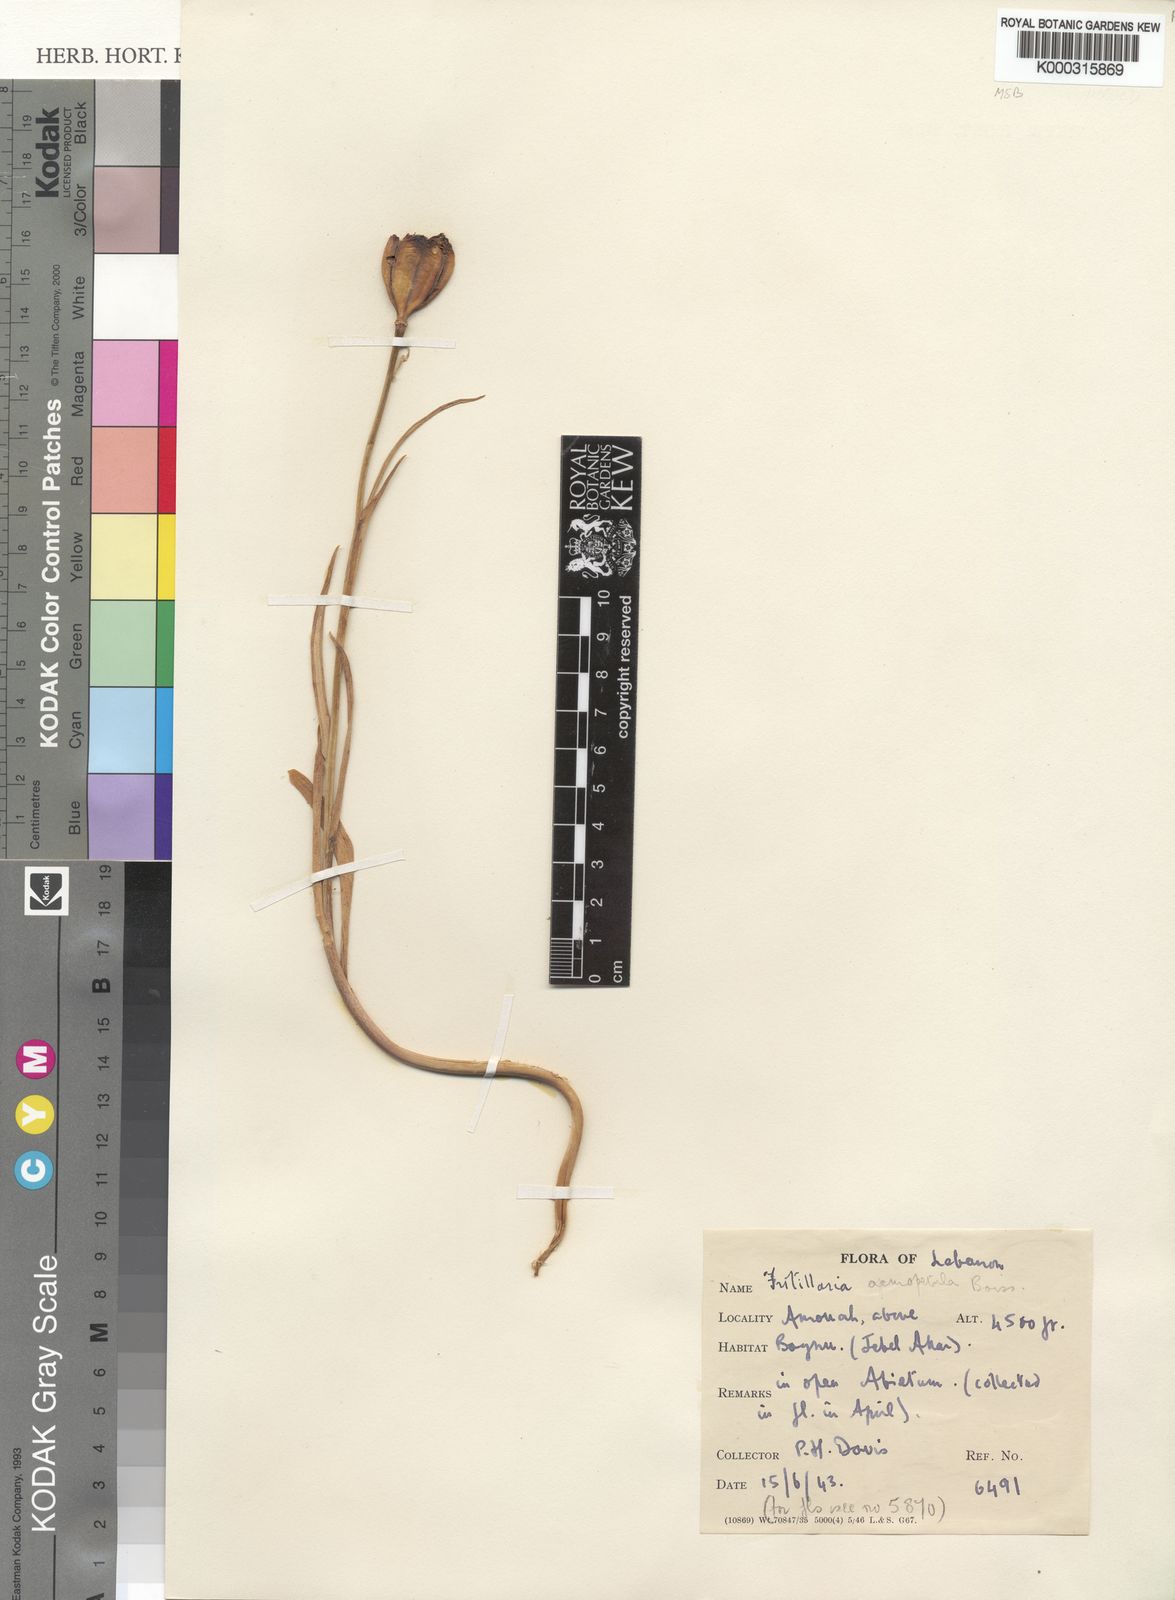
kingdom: Plantae
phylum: Tracheophyta
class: Liliopsida
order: Liliales
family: Liliaceae
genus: Fritillaria
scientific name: Fritillaria acmopetala
